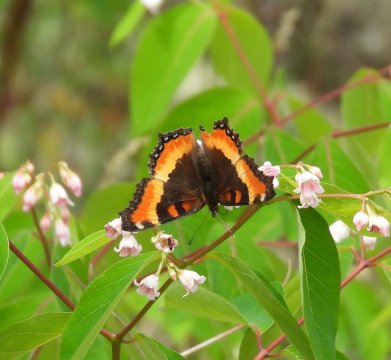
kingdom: Animalia
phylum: Arthropoda
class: Insecta
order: Lepidoptera
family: Nymphalidae
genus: Aglais
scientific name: Aglais milberti
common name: Milbert's Tortoiseshell
